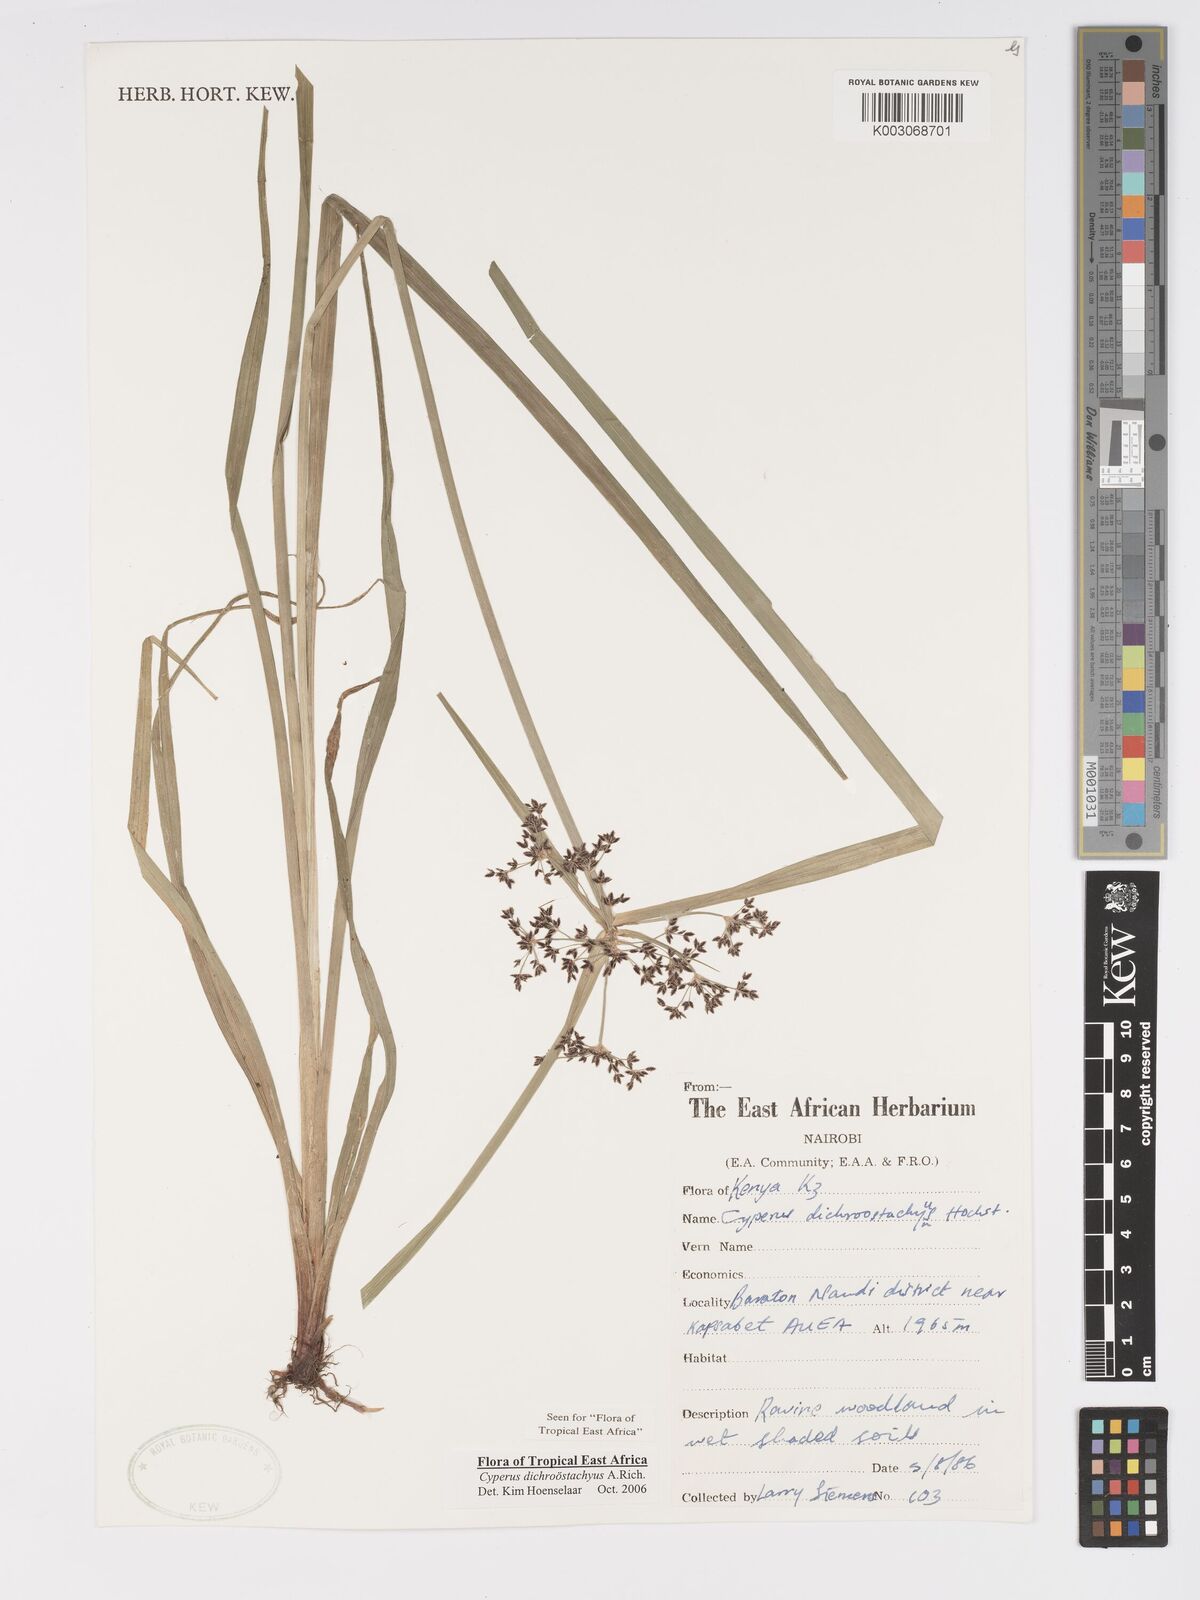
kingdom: Plantae
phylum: Tracheophyta
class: Liliopsida
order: Poales
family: Cyperaceae
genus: Cyperus
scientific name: Cyperus dichrostachyus
